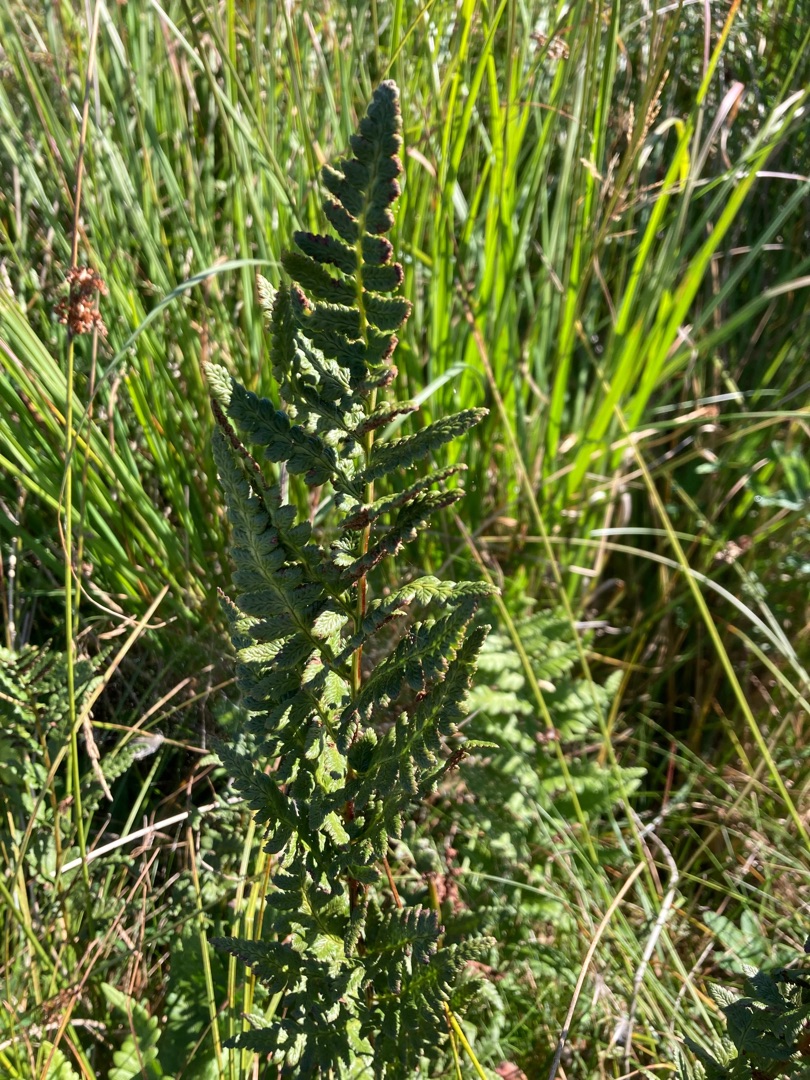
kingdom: Plantae
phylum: Tracheophyta
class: Polypodiopsida
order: Polypodiales
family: Dryopteridaceae
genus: Dryopteris
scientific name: Dryopteris cristata
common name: Butfinnet mangeløv
